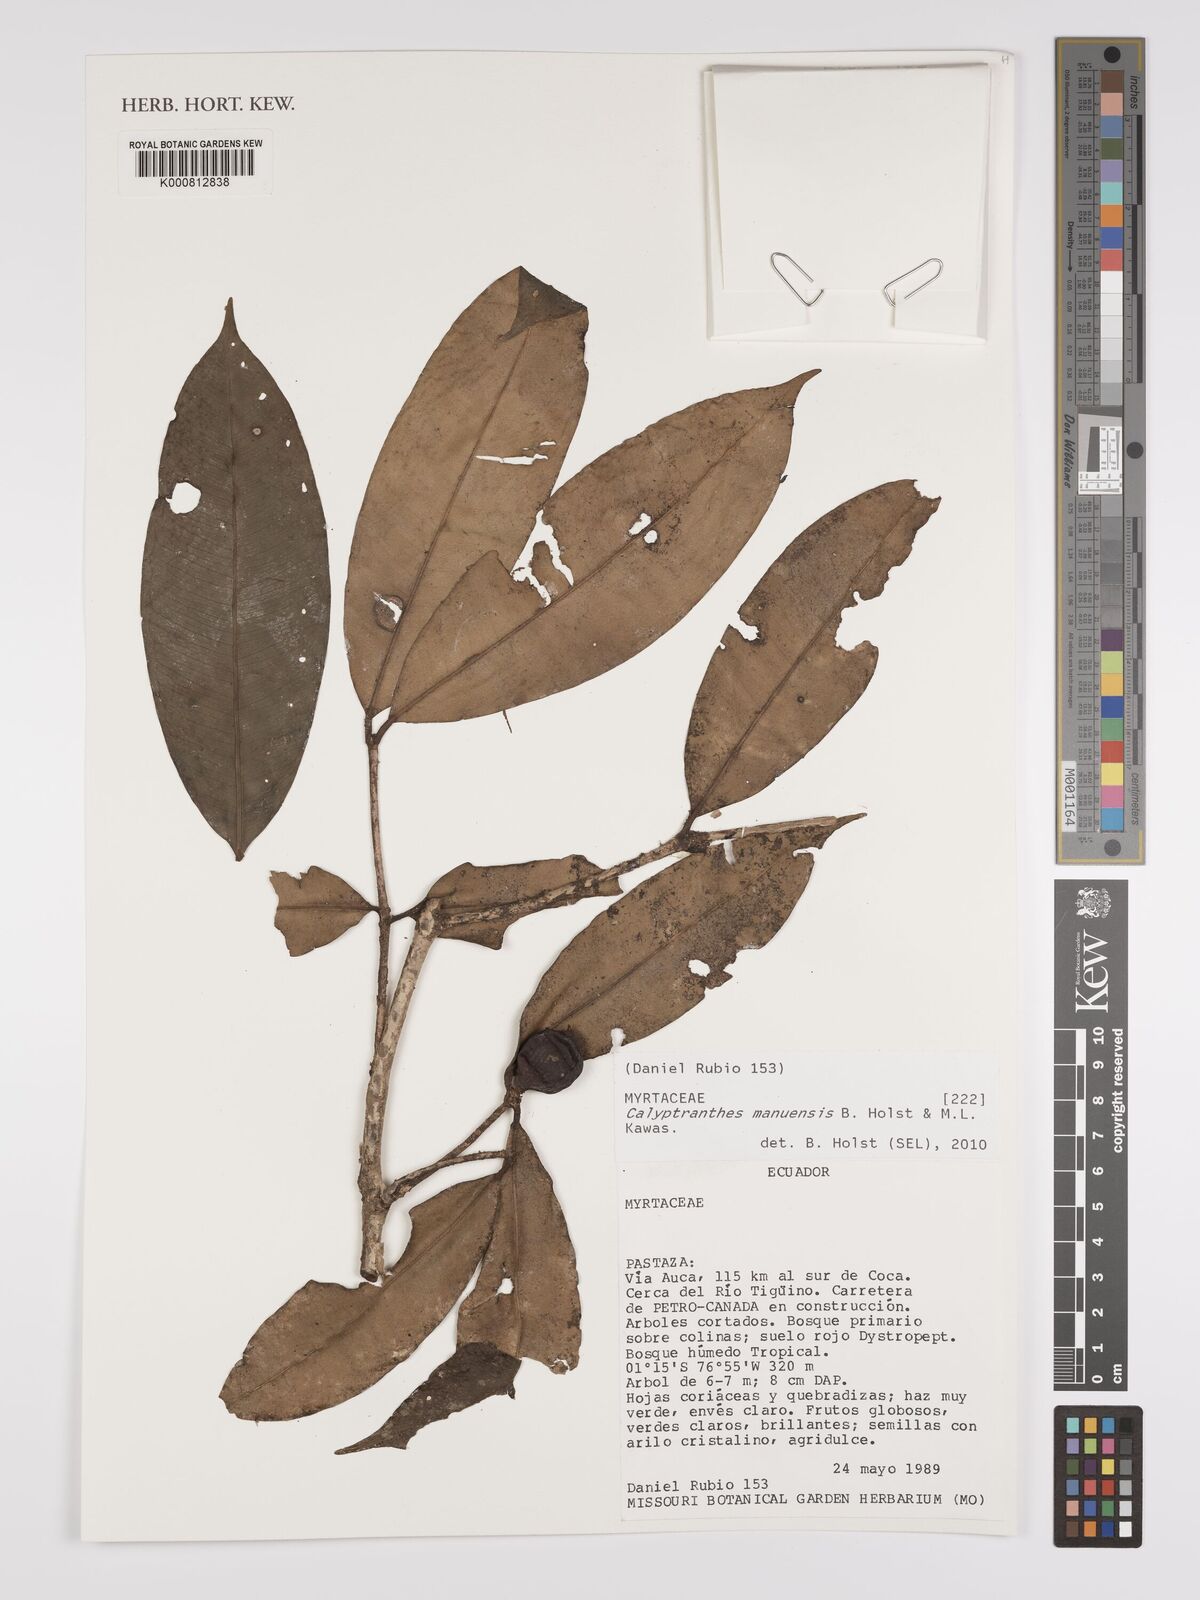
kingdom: Plantae
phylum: Tracheophyta
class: Magnoliopsida
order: Myrtales
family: Myrtaceae
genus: Myrcia
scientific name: Myrcia manuensis
